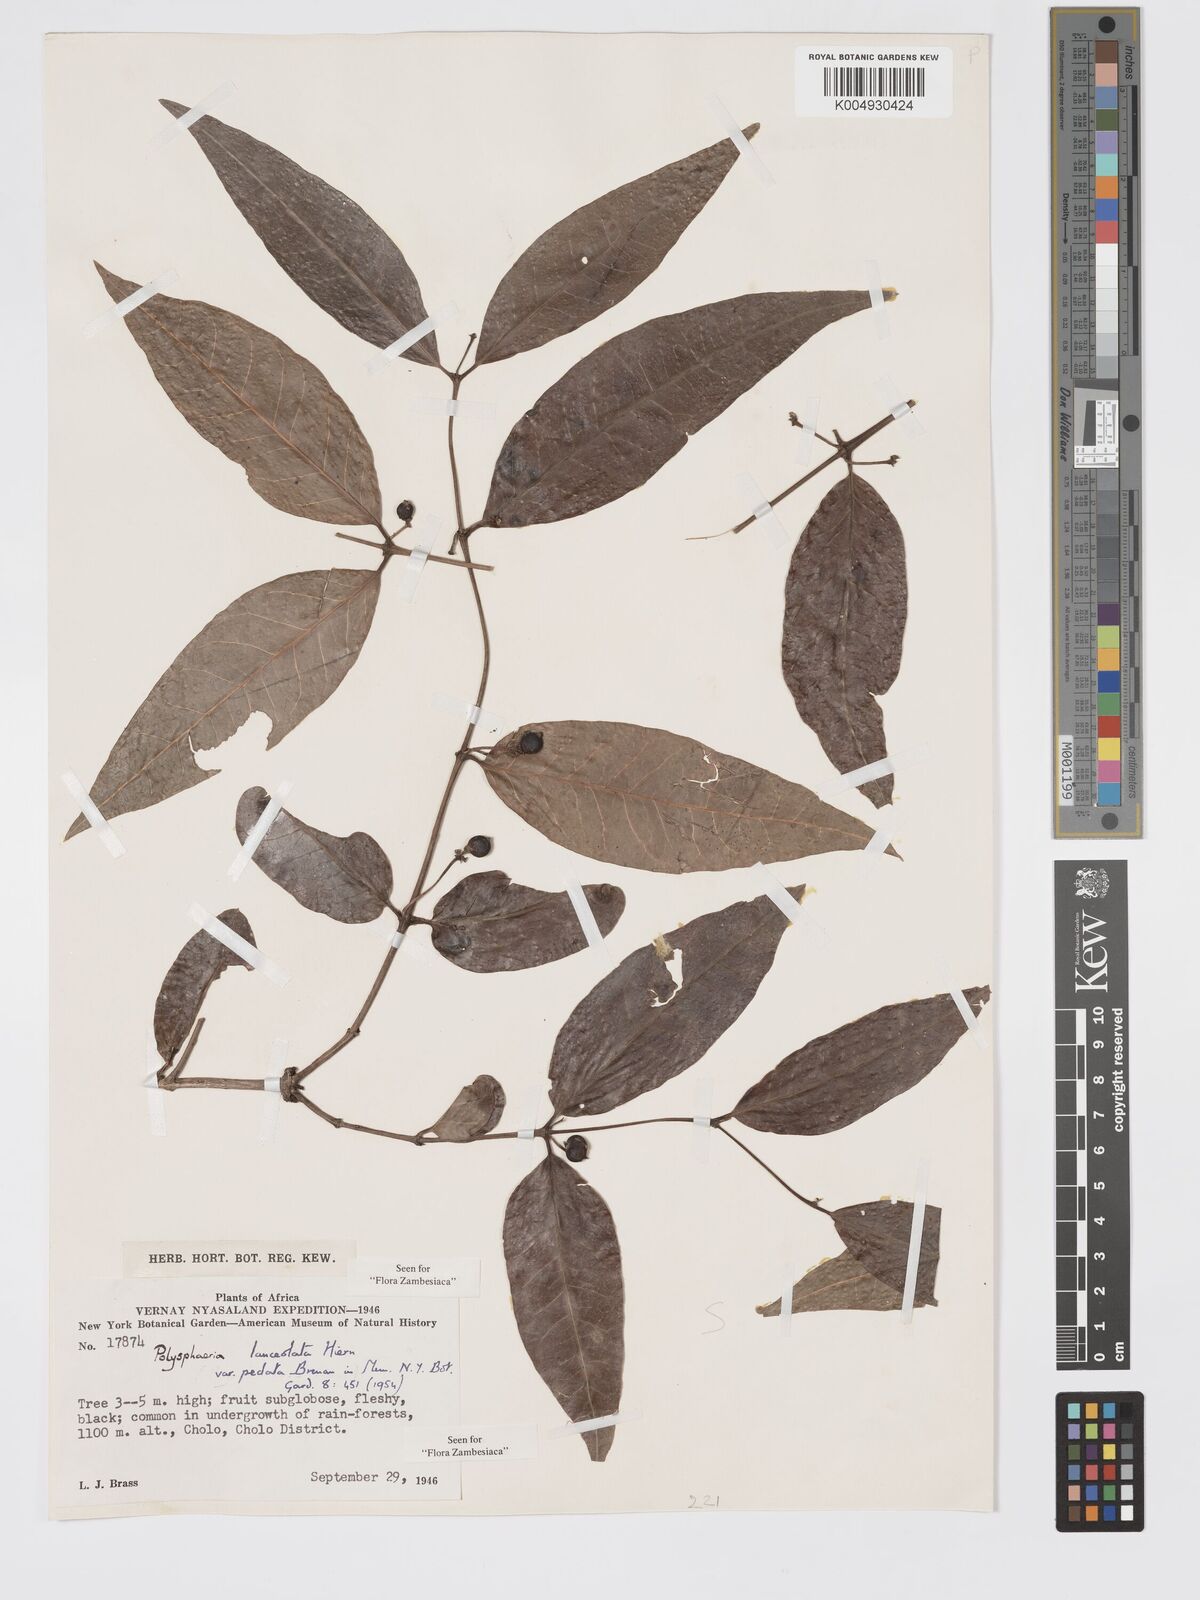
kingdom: Plantae
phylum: Tracheophyta
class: Magnoliopsida
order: Gentianales
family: Rubiaceae
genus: Polysphaeria
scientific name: Polysphaeria lanceolata
